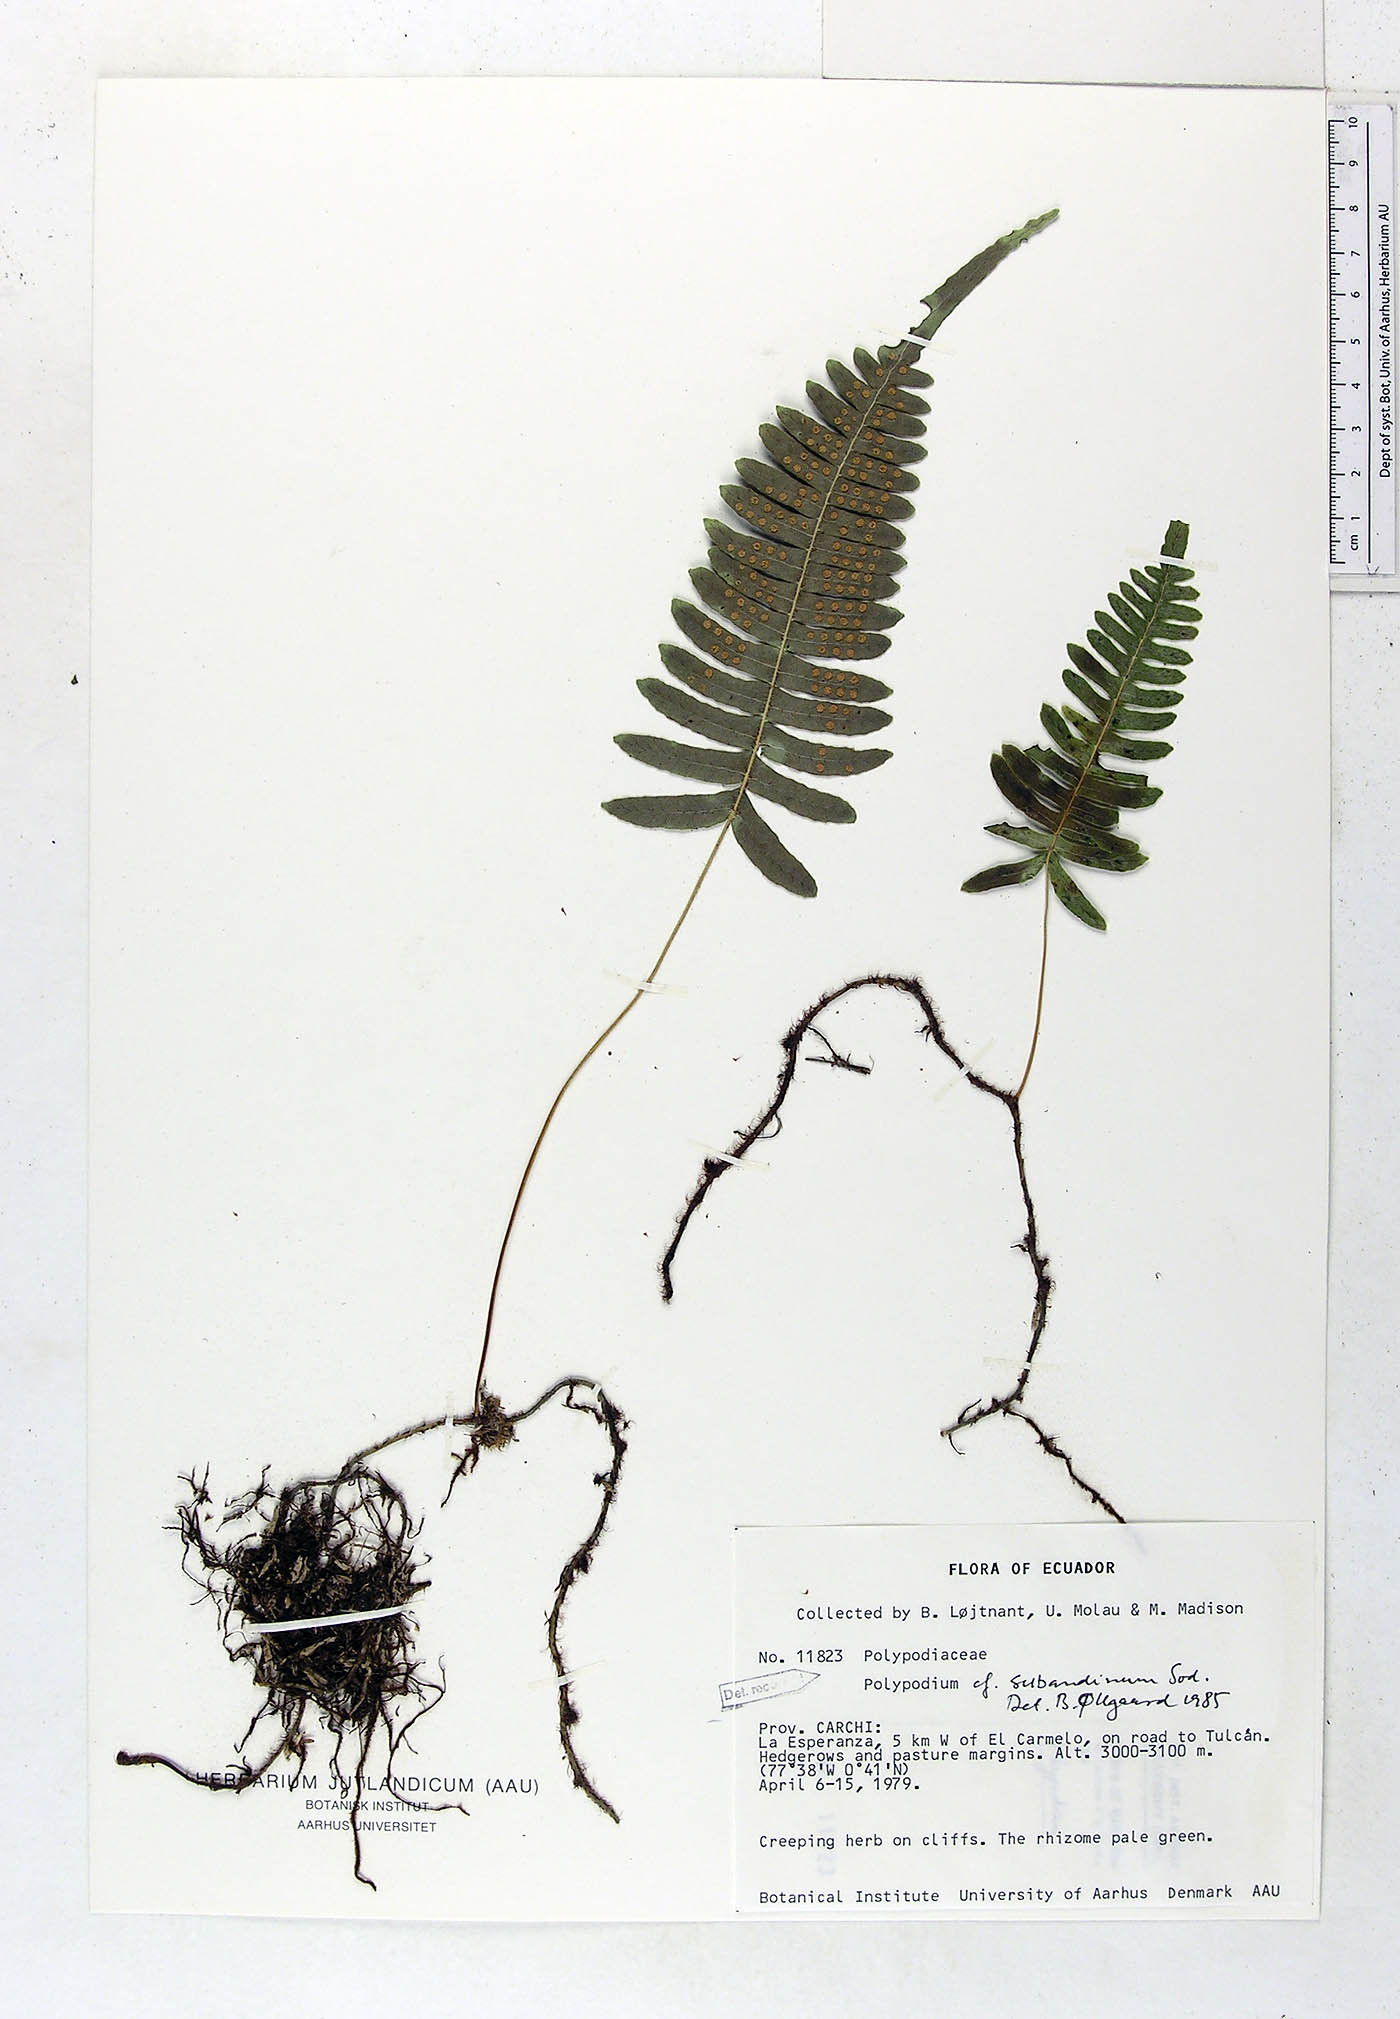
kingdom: Plantae
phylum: Tracheophyta
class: Polypodiopsida
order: Polypodiales
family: Polypodiaceae
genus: Serpocaulon
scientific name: Serpocaulon subandinum
